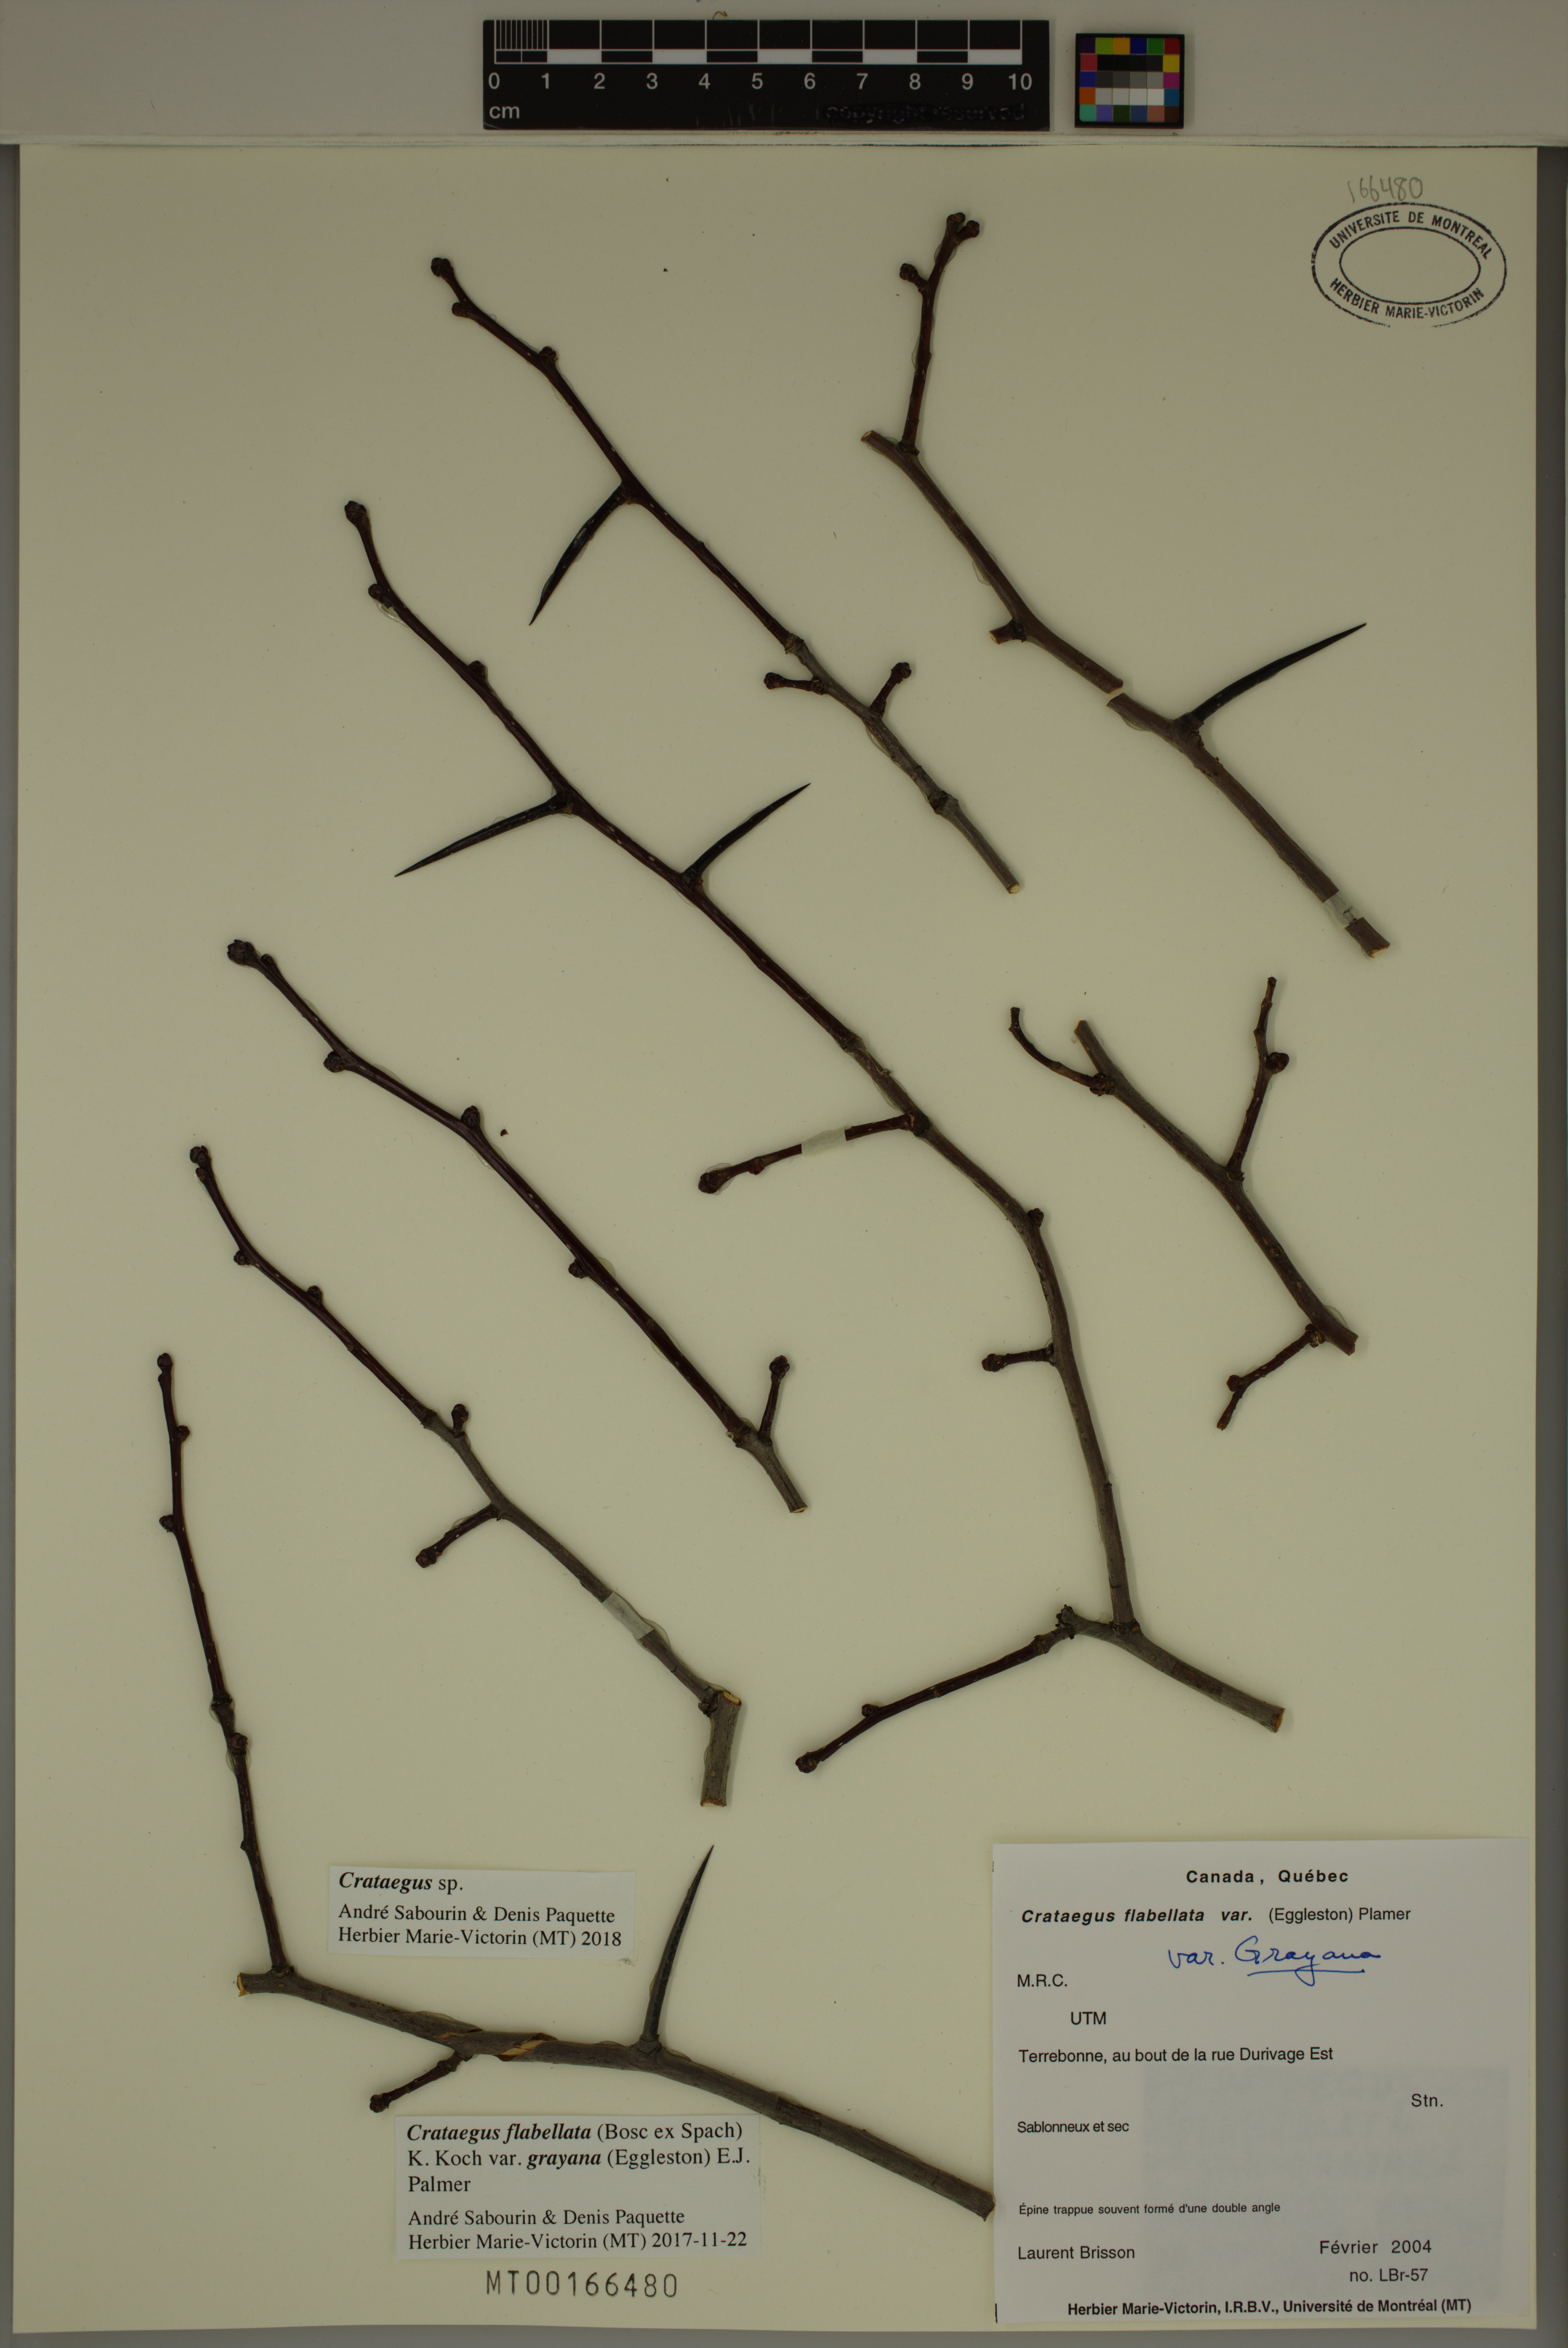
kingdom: Plantae
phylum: Tracheophyta
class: Magnoliopsida
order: Rosales
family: Rosaceae
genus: Crataegus
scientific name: Crataegus
